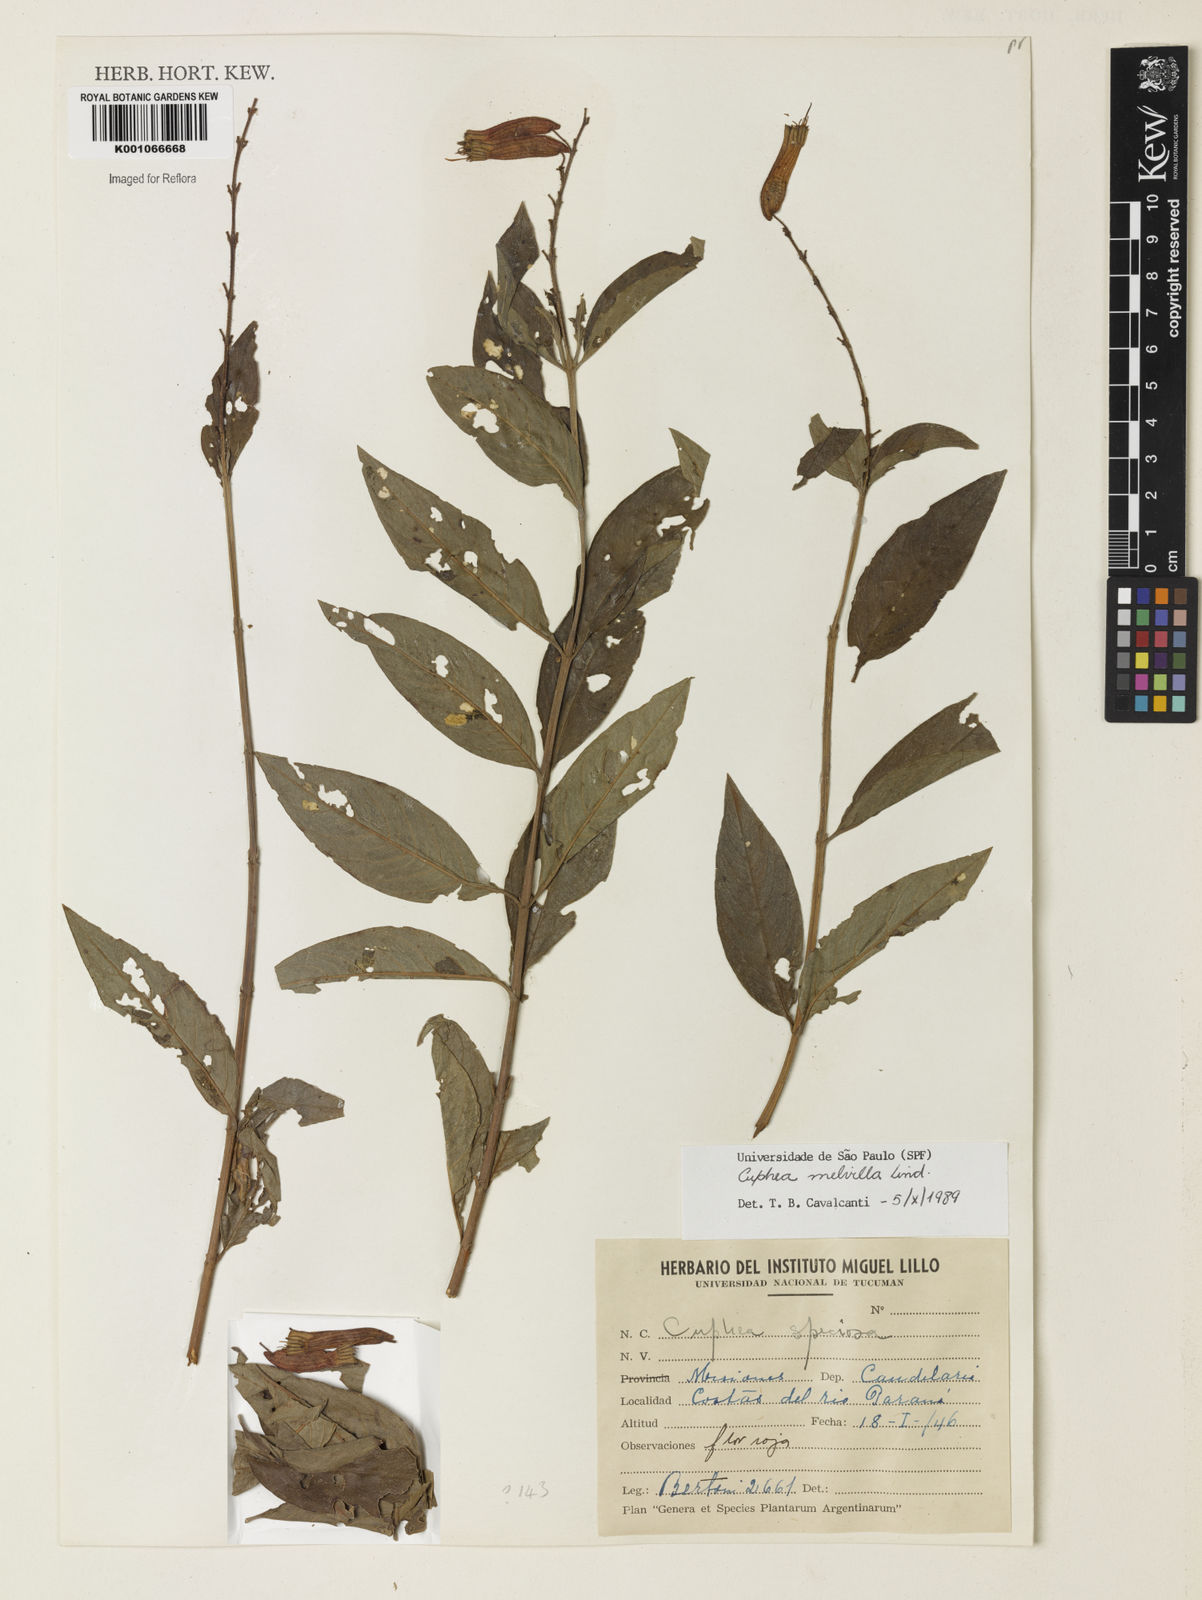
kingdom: Plantae
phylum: Tracheophyta
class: Magnoliopsida
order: Myrtales
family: Lythraceae
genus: Cuphea
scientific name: Cuphea melvilla
